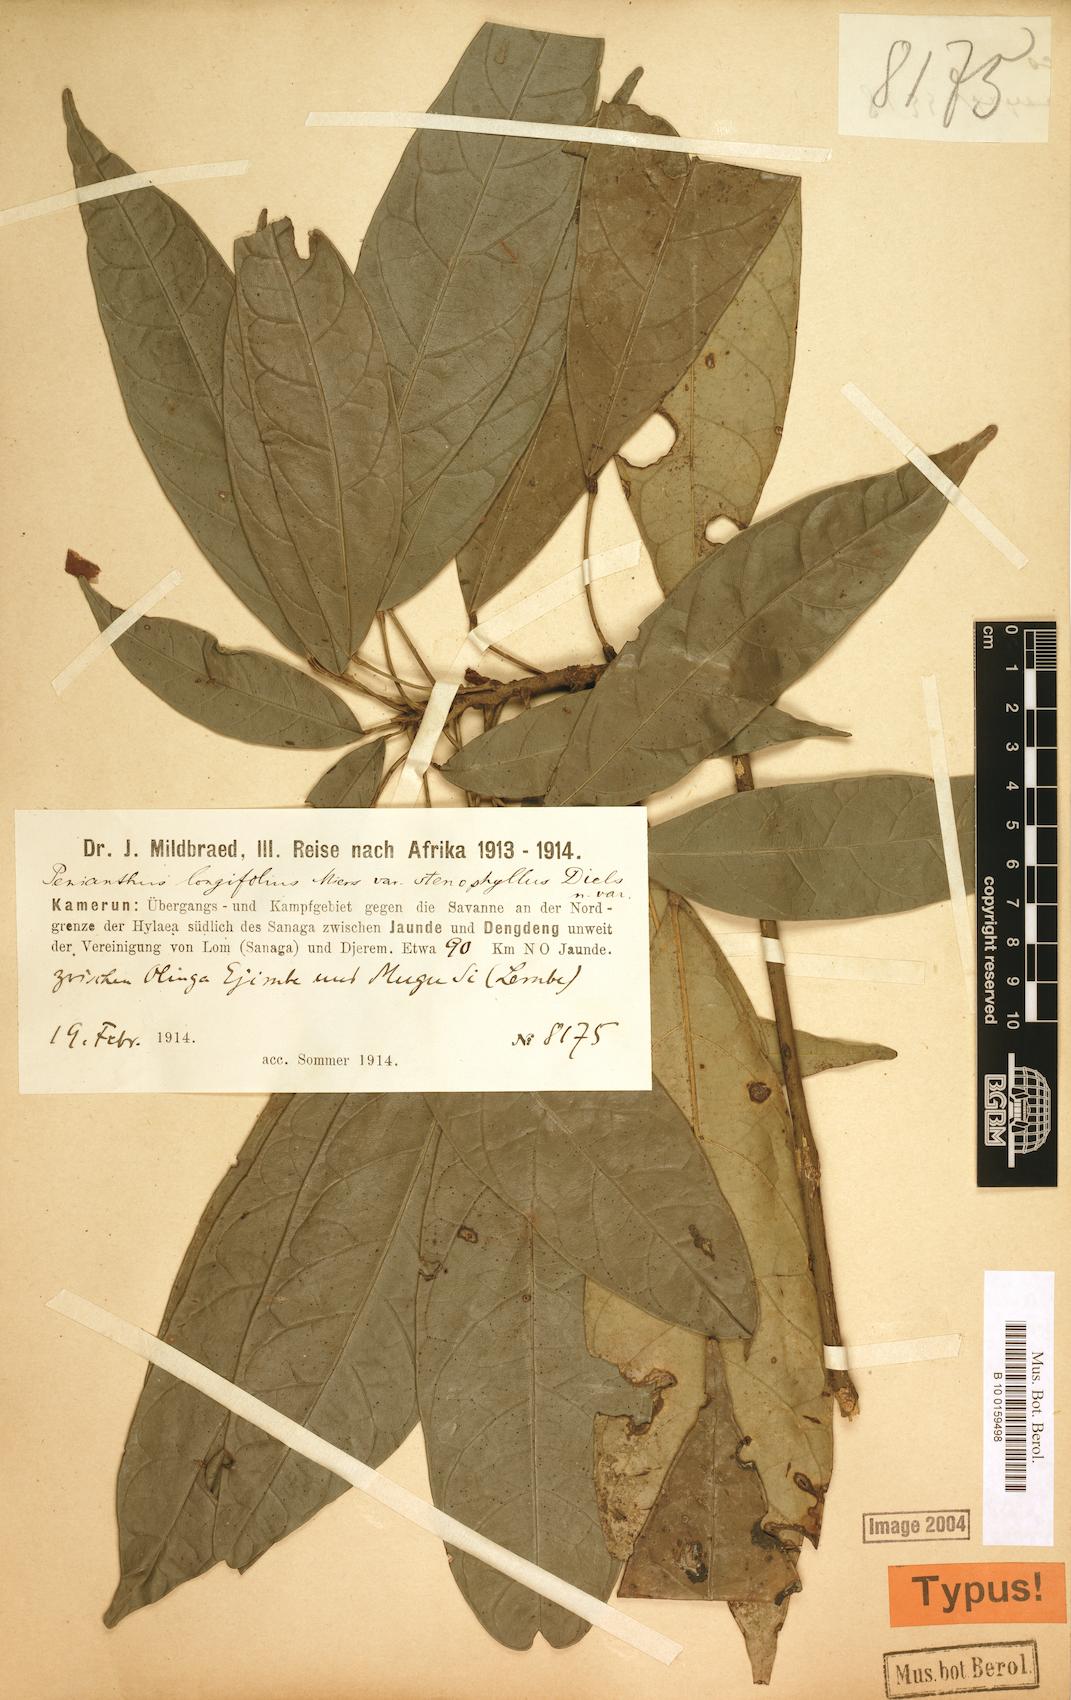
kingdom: Plantae
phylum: Tracheophyta
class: Magnoliopsida
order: Ranunculales
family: Menispermaceae
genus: Penianthus
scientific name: Penianthus longifolius
